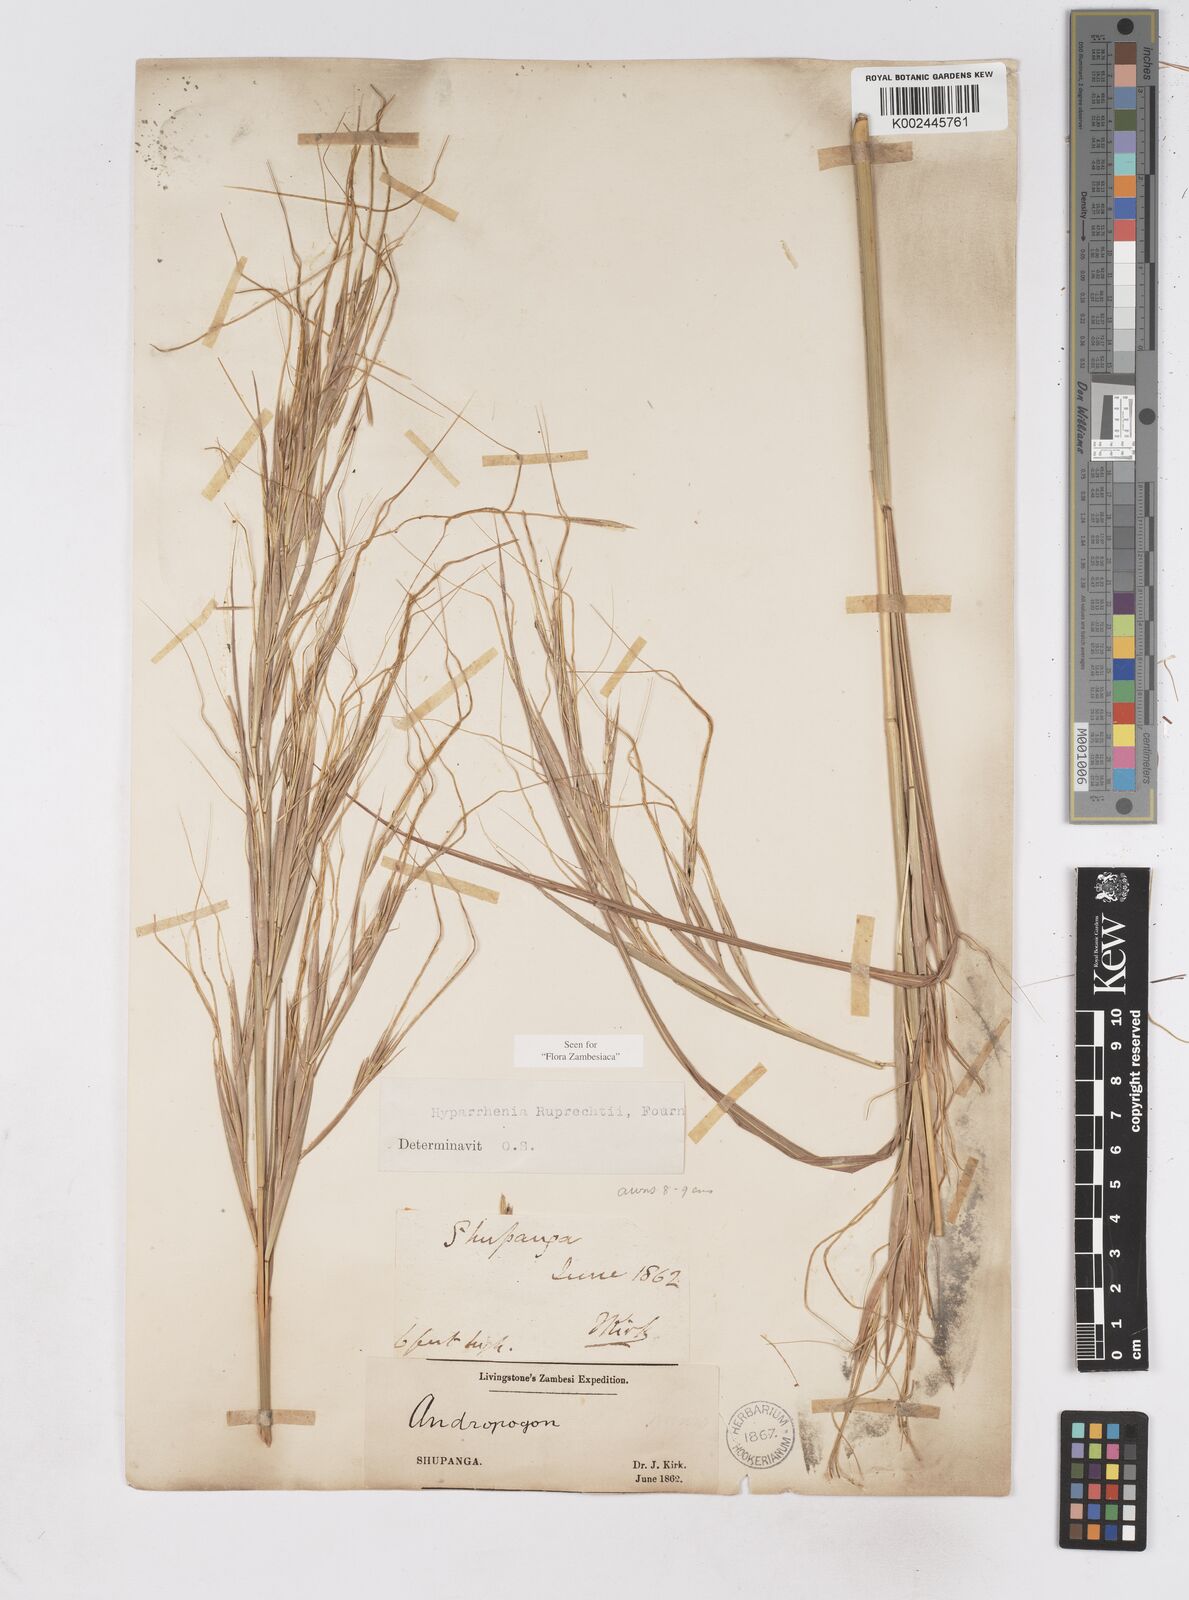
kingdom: Plantae
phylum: Tracheophyta
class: Liliopsida
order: Poales
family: Poaceae
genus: Hyperthelia
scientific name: Hyperthelia dissoluta
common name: Yellow thatching grass
